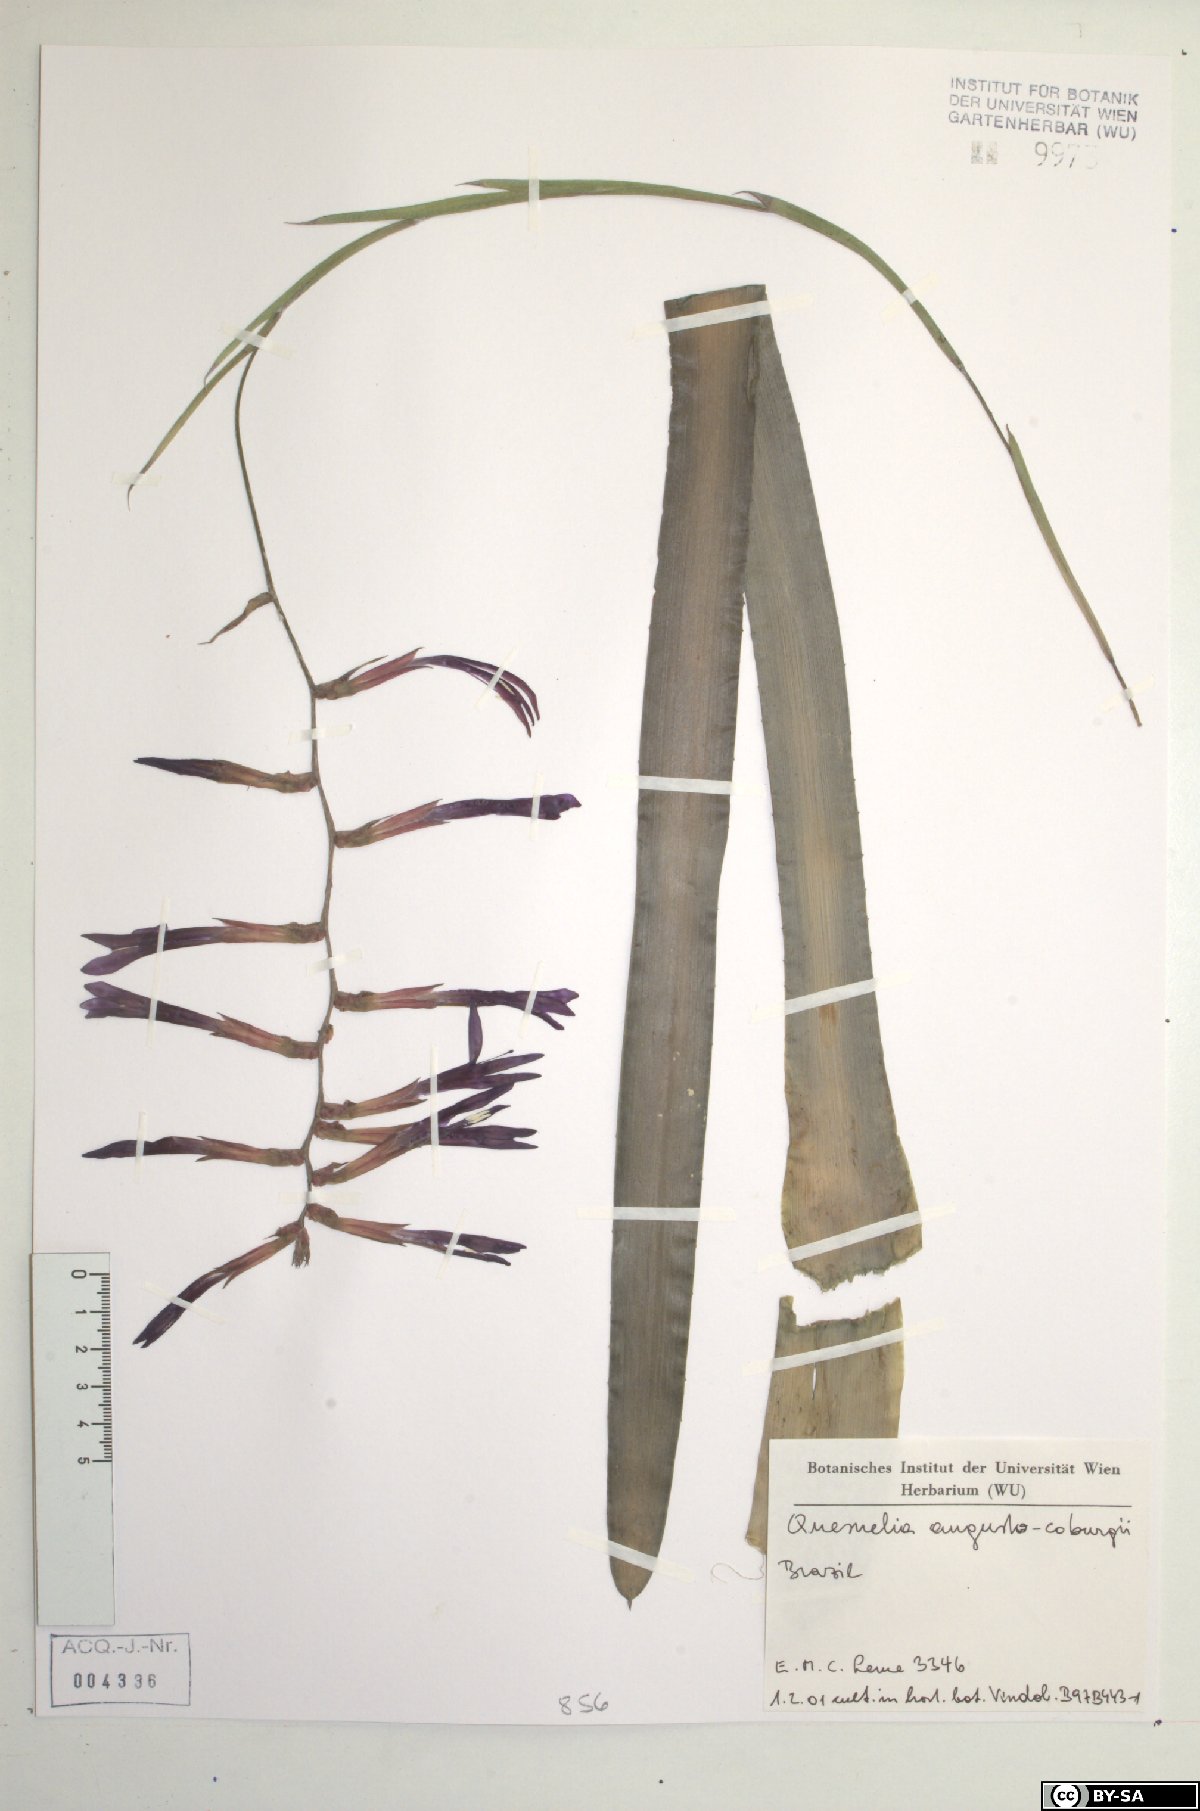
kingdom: Plantae
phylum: Tracheophyta
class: Liliopsida
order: Poales
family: Bromeliaceae
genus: Quesnelia
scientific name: Quesnelia augustocoburgi
